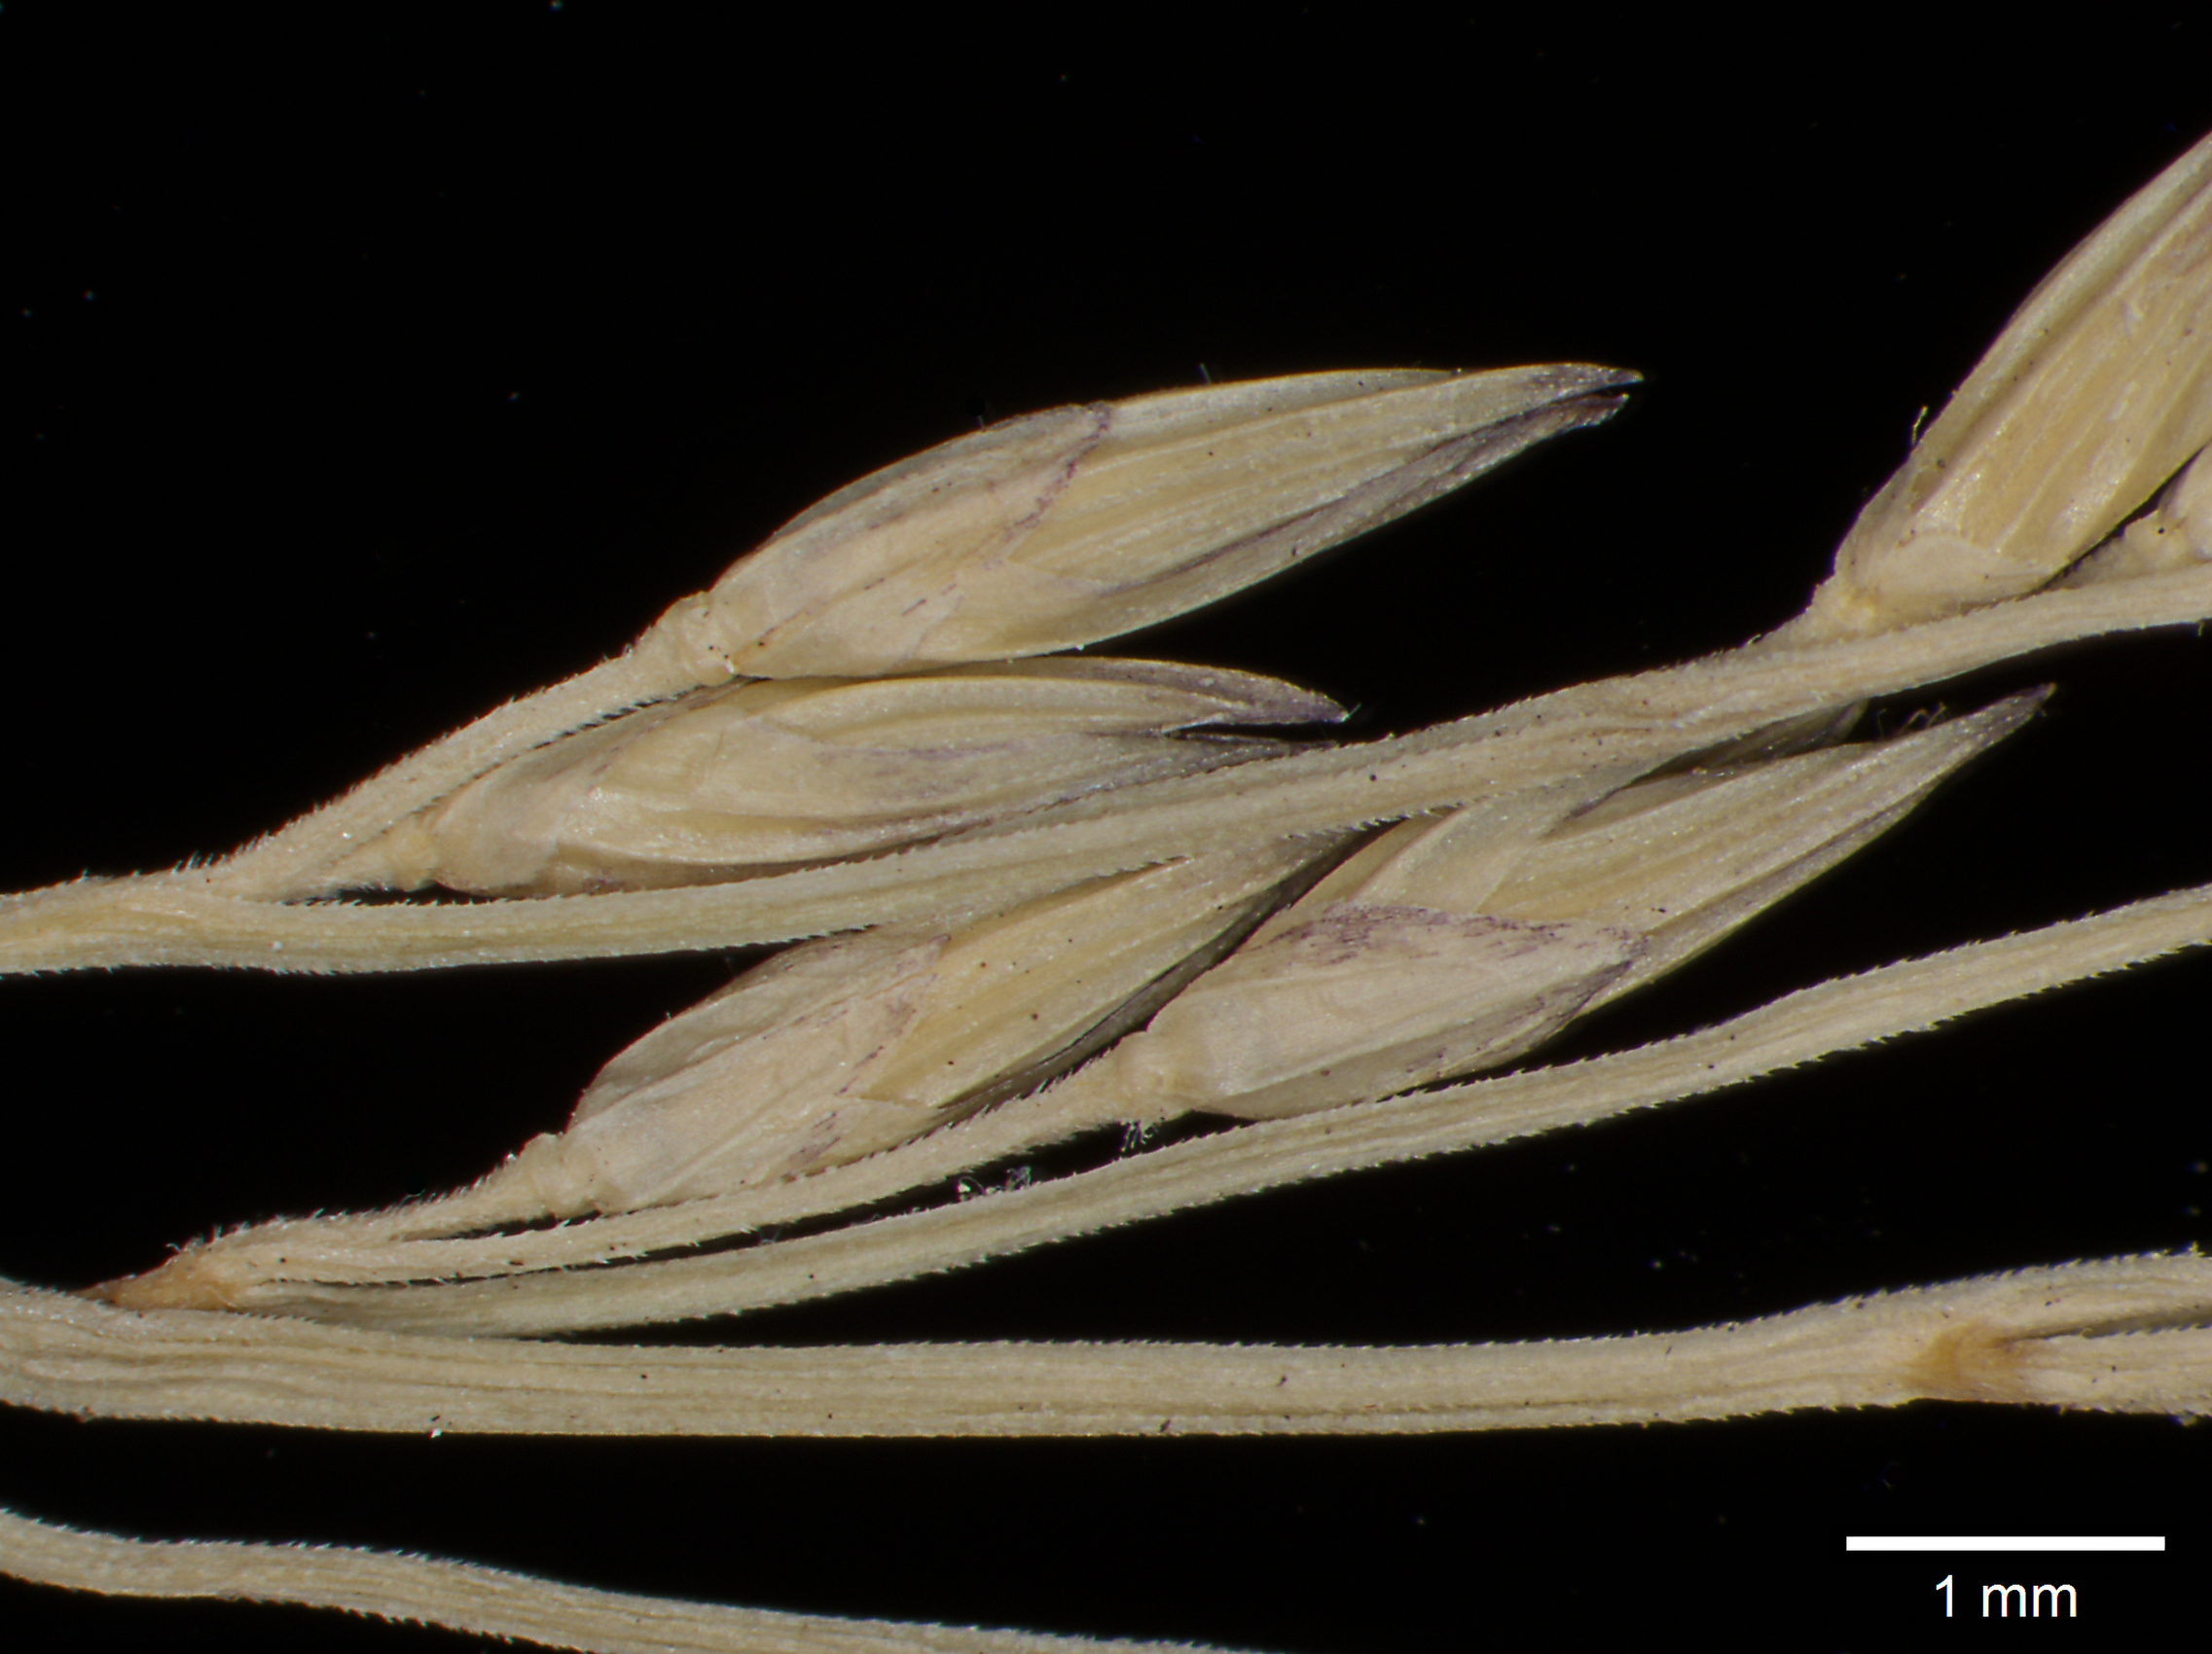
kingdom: Plantae
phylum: Tracheophyta
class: Liliopsida
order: Poales
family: Poaceae
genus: Oedochloa
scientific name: Oedochloa mayarensis
